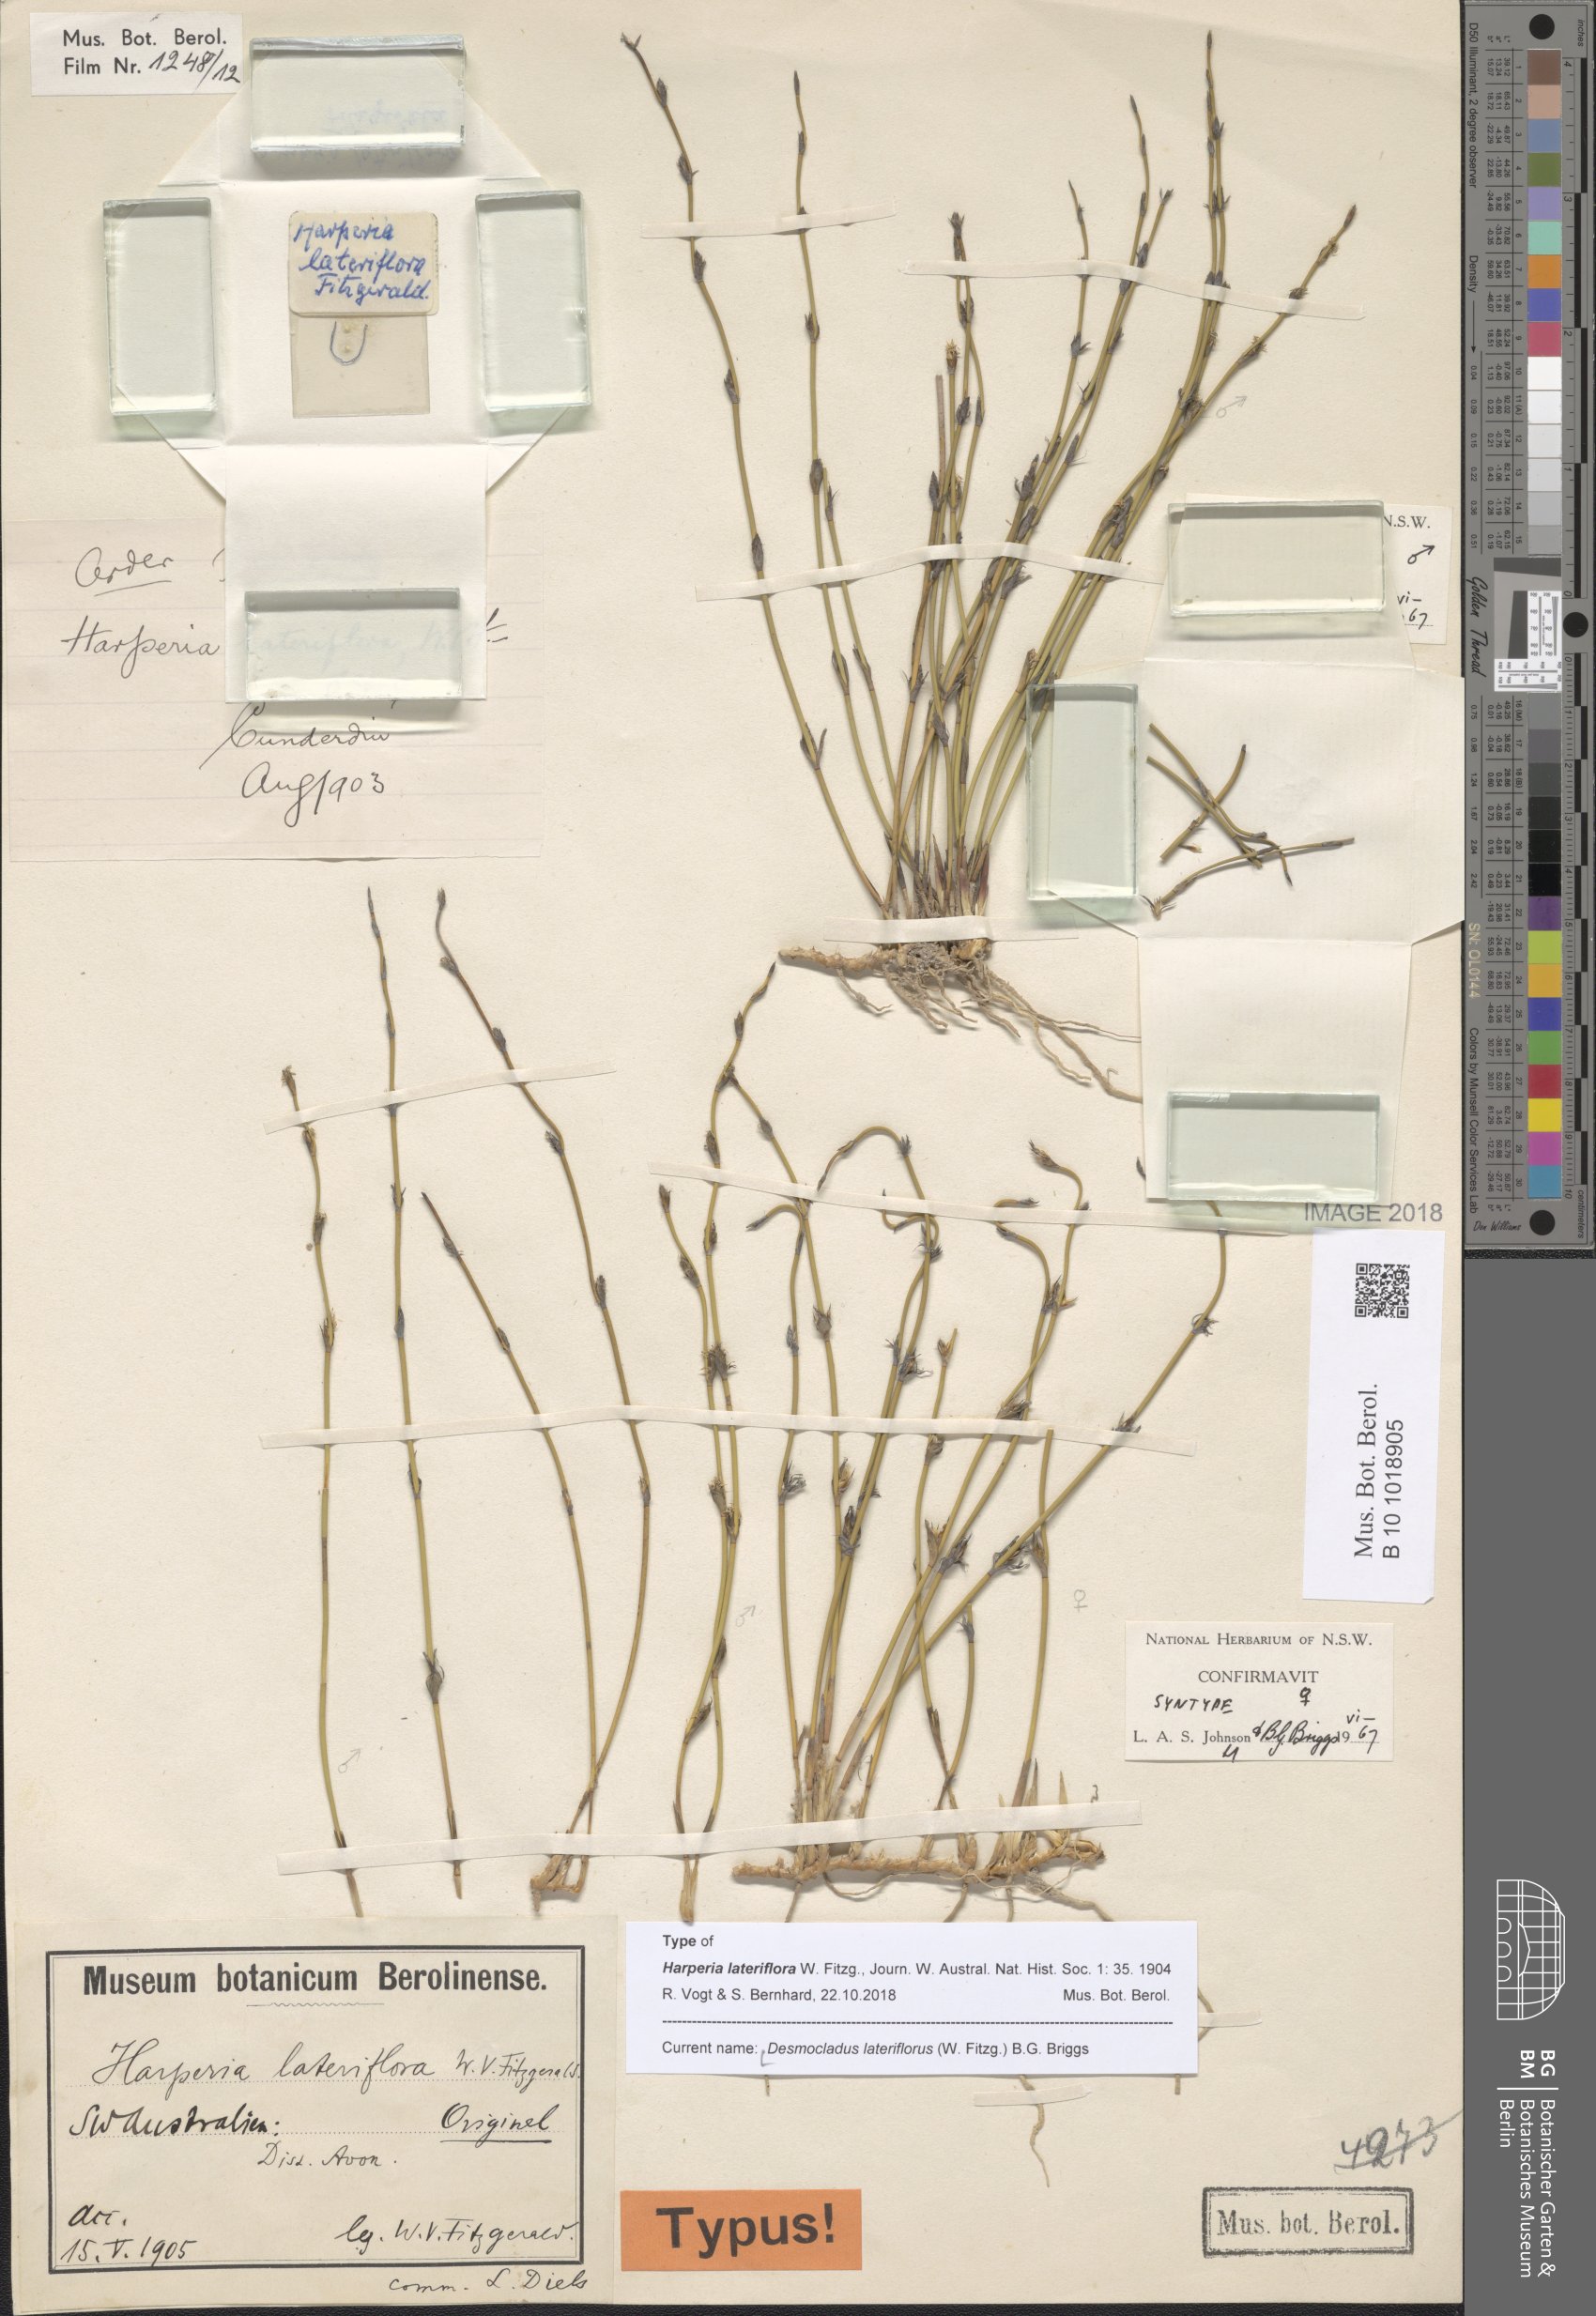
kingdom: Plantae
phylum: Tracheophyta
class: Liliopsida
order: Poales
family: Restionaceae
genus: Desmocladus
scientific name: Desmocladus lateriflorus
